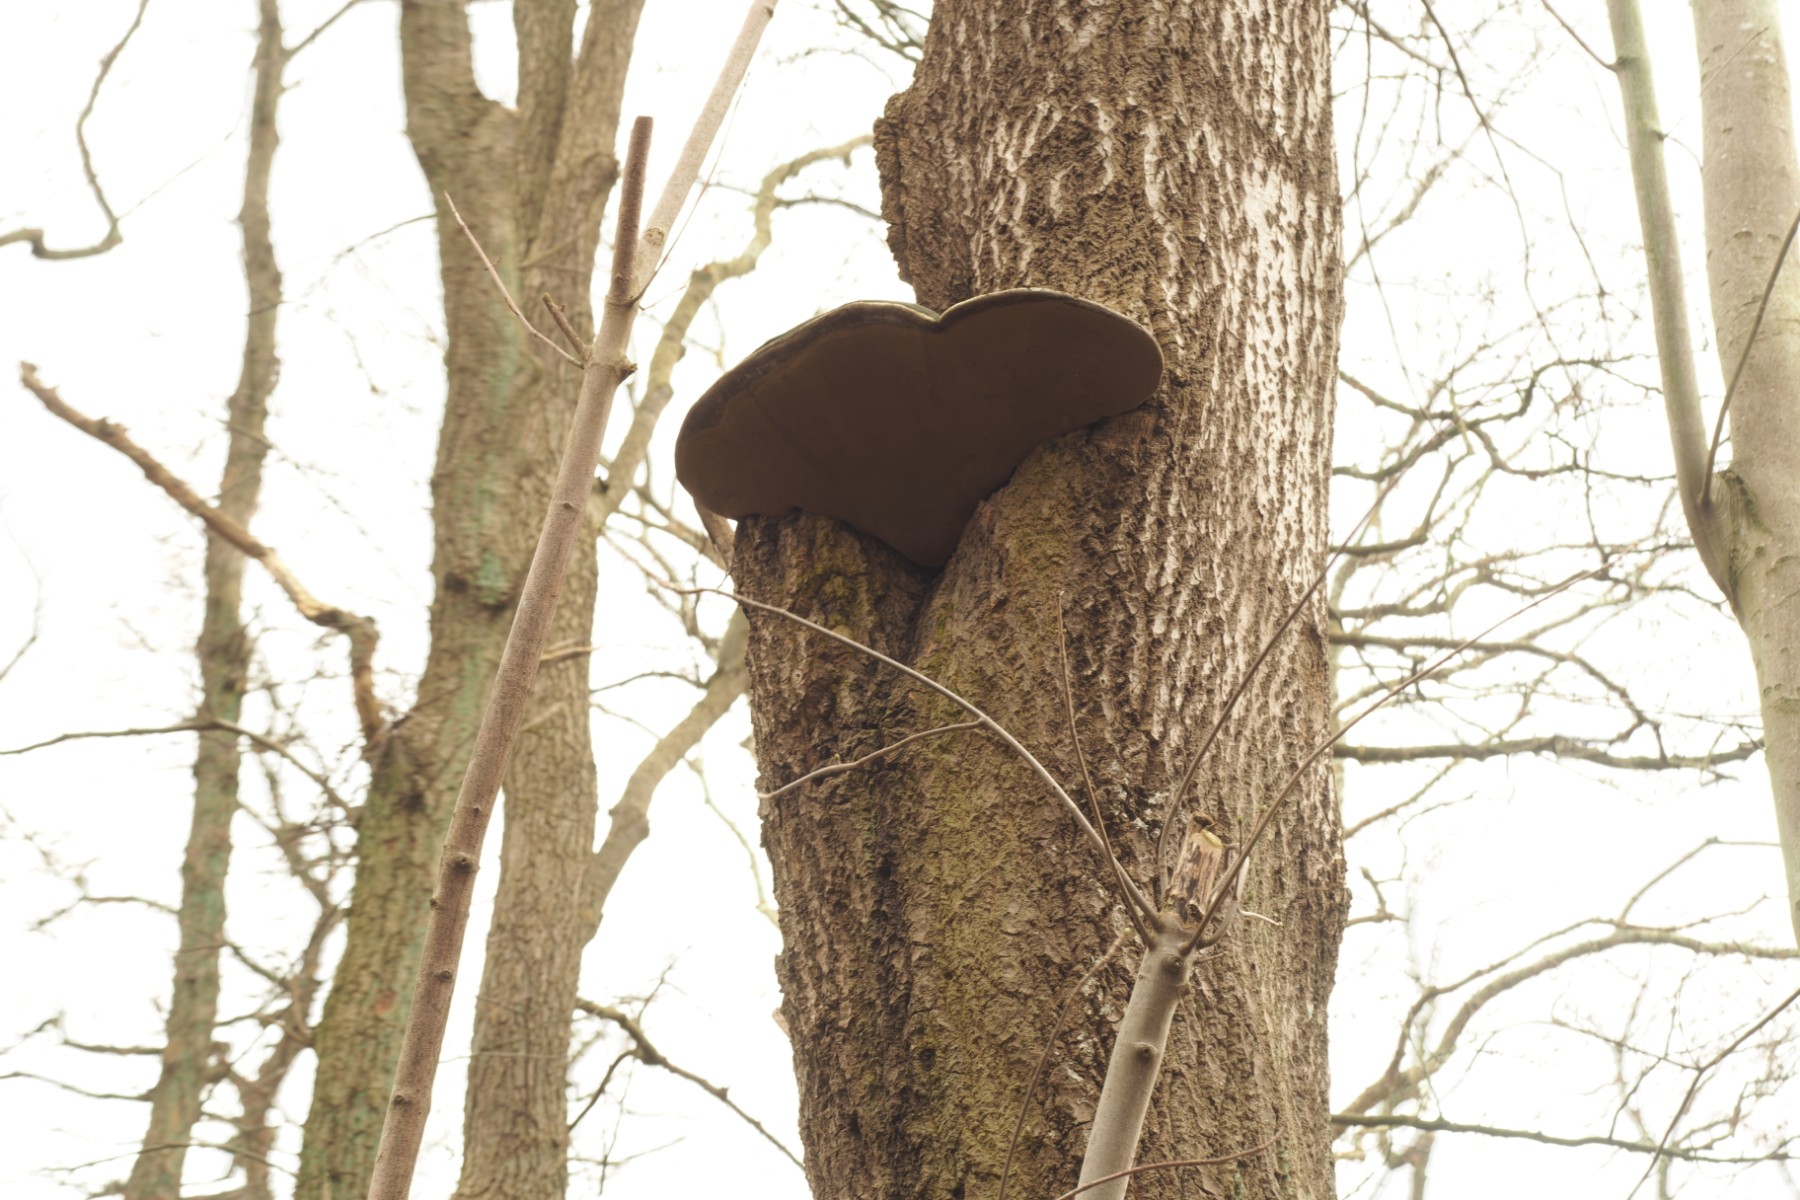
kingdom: Fungi
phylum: Basidiomycota
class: Agaricomycetes
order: Hymenochaetales
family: Hymenochaetaceae
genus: Phellinus
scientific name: Phellinus populicola
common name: poppel-ildporesvamp
